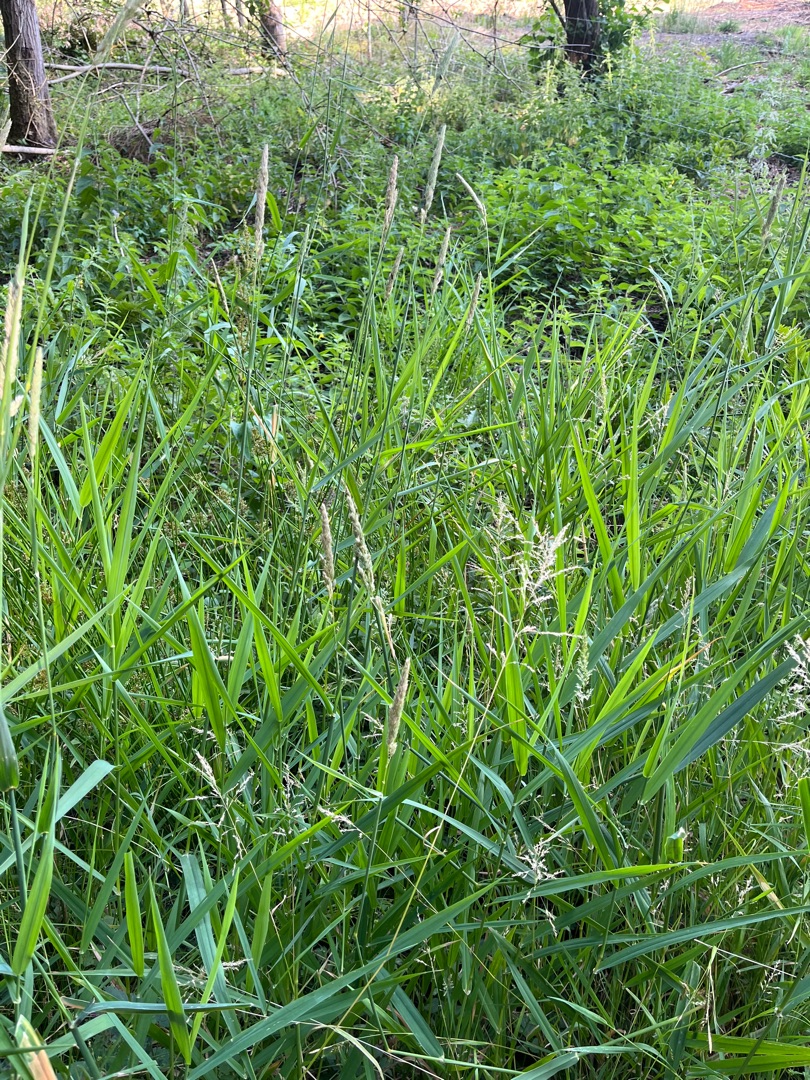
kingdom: Plantae
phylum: Tracheophyta
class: Liliopsida
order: Poales
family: Poaceae
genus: Phalaris
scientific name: Phalaris arundinacea
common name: Rørgræs
